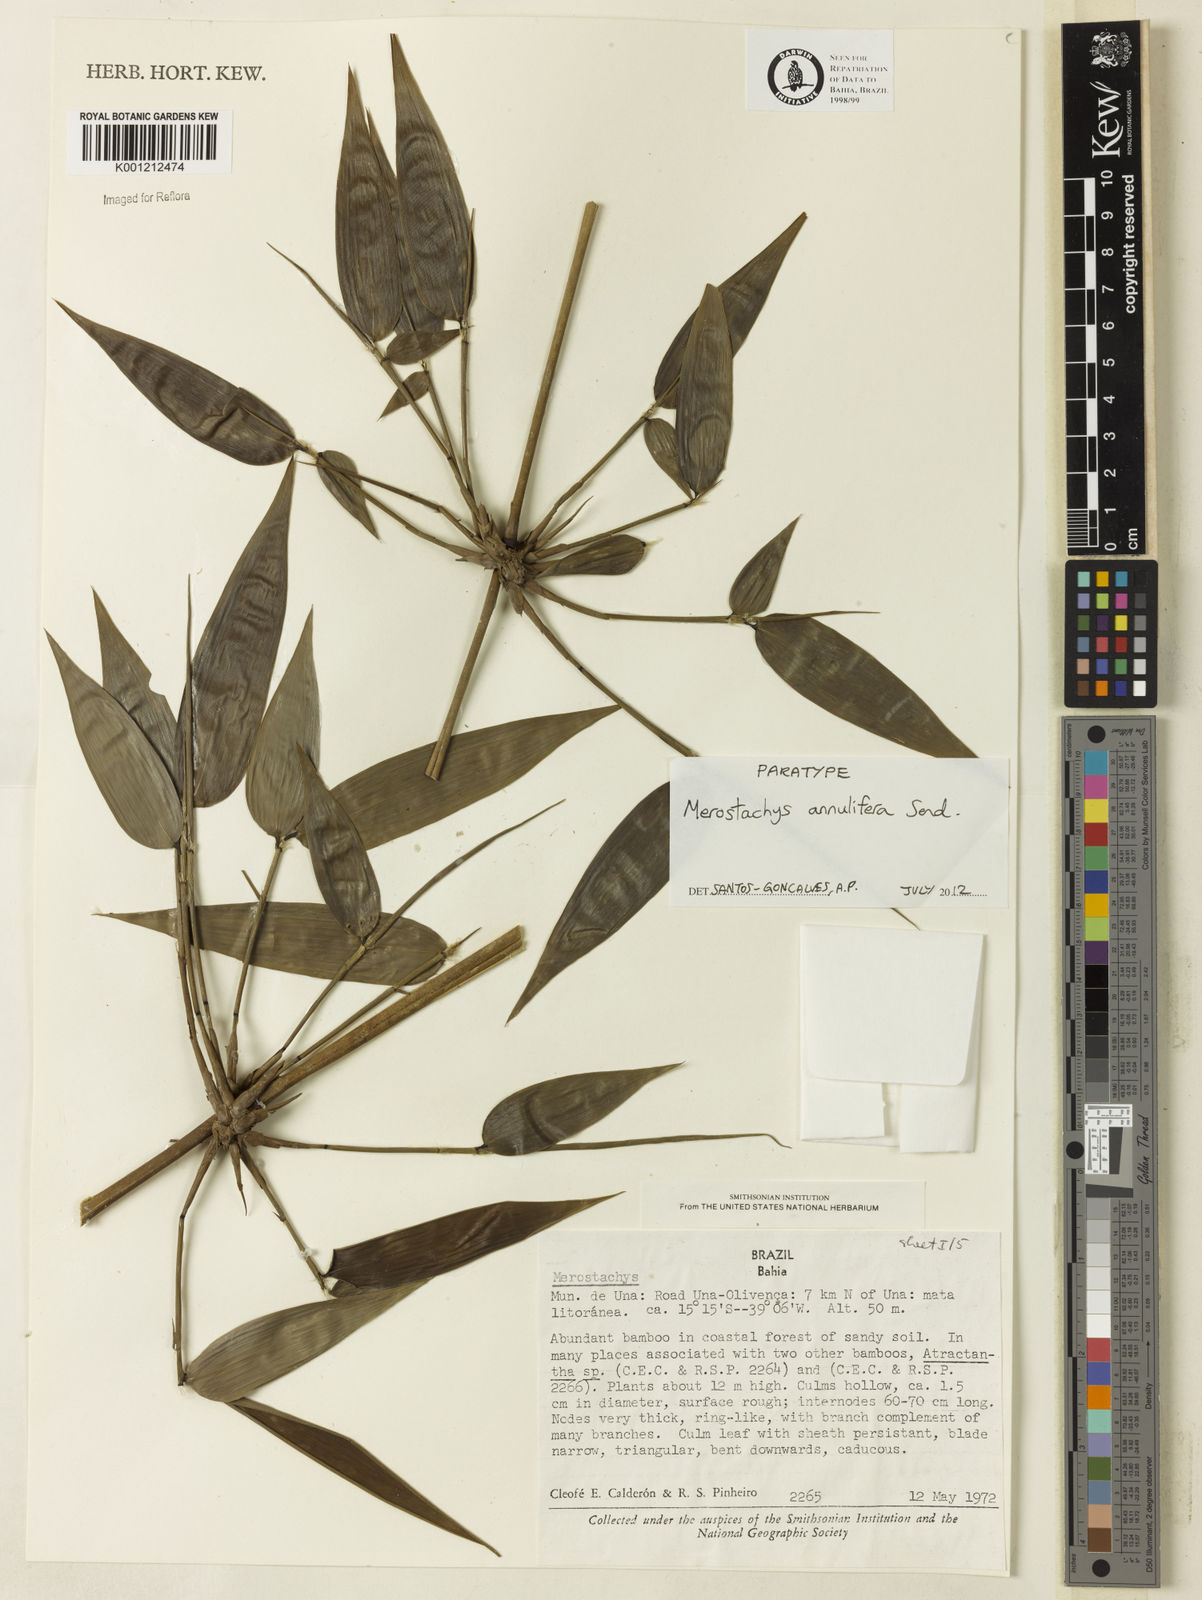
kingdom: Plantae
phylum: Tracheophyta
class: Liliopsida
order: Poales
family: Poaceae
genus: Merostachys
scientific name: Merostachys annulifera
